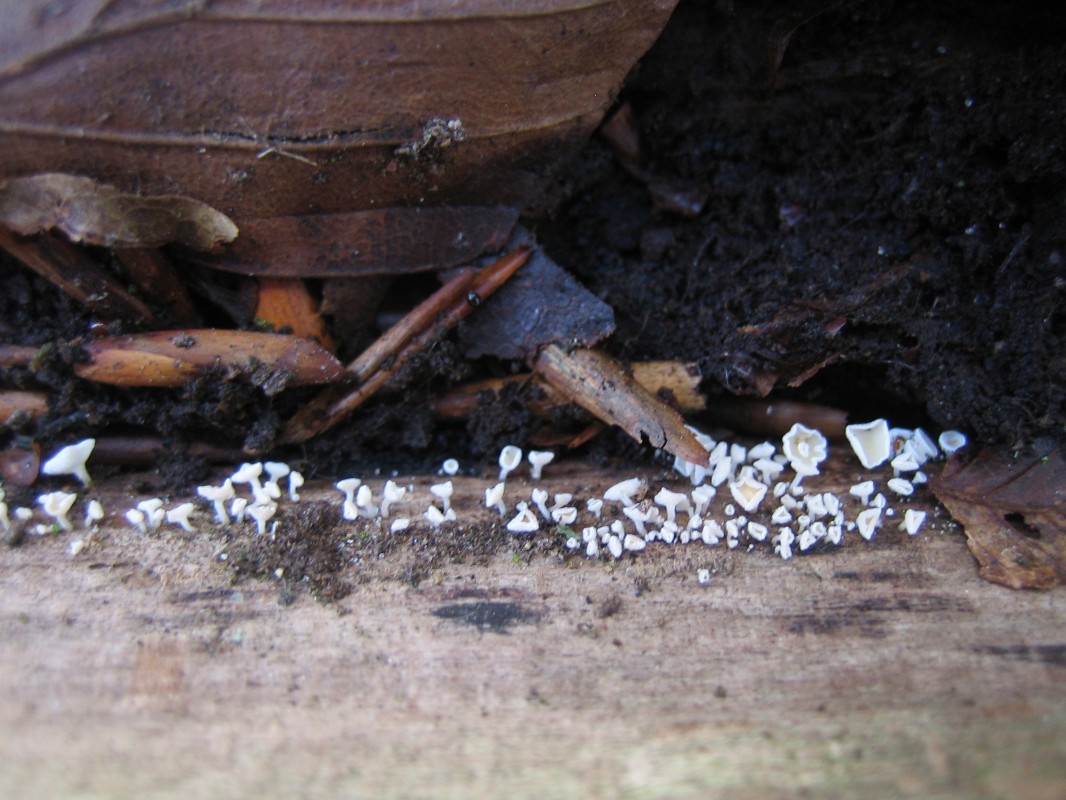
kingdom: Fungi
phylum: Ascomycota
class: Leotiomycetes
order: Helotiales
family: Lachnaceae
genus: Lachnum
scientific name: Lachnum
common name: frynseskive
